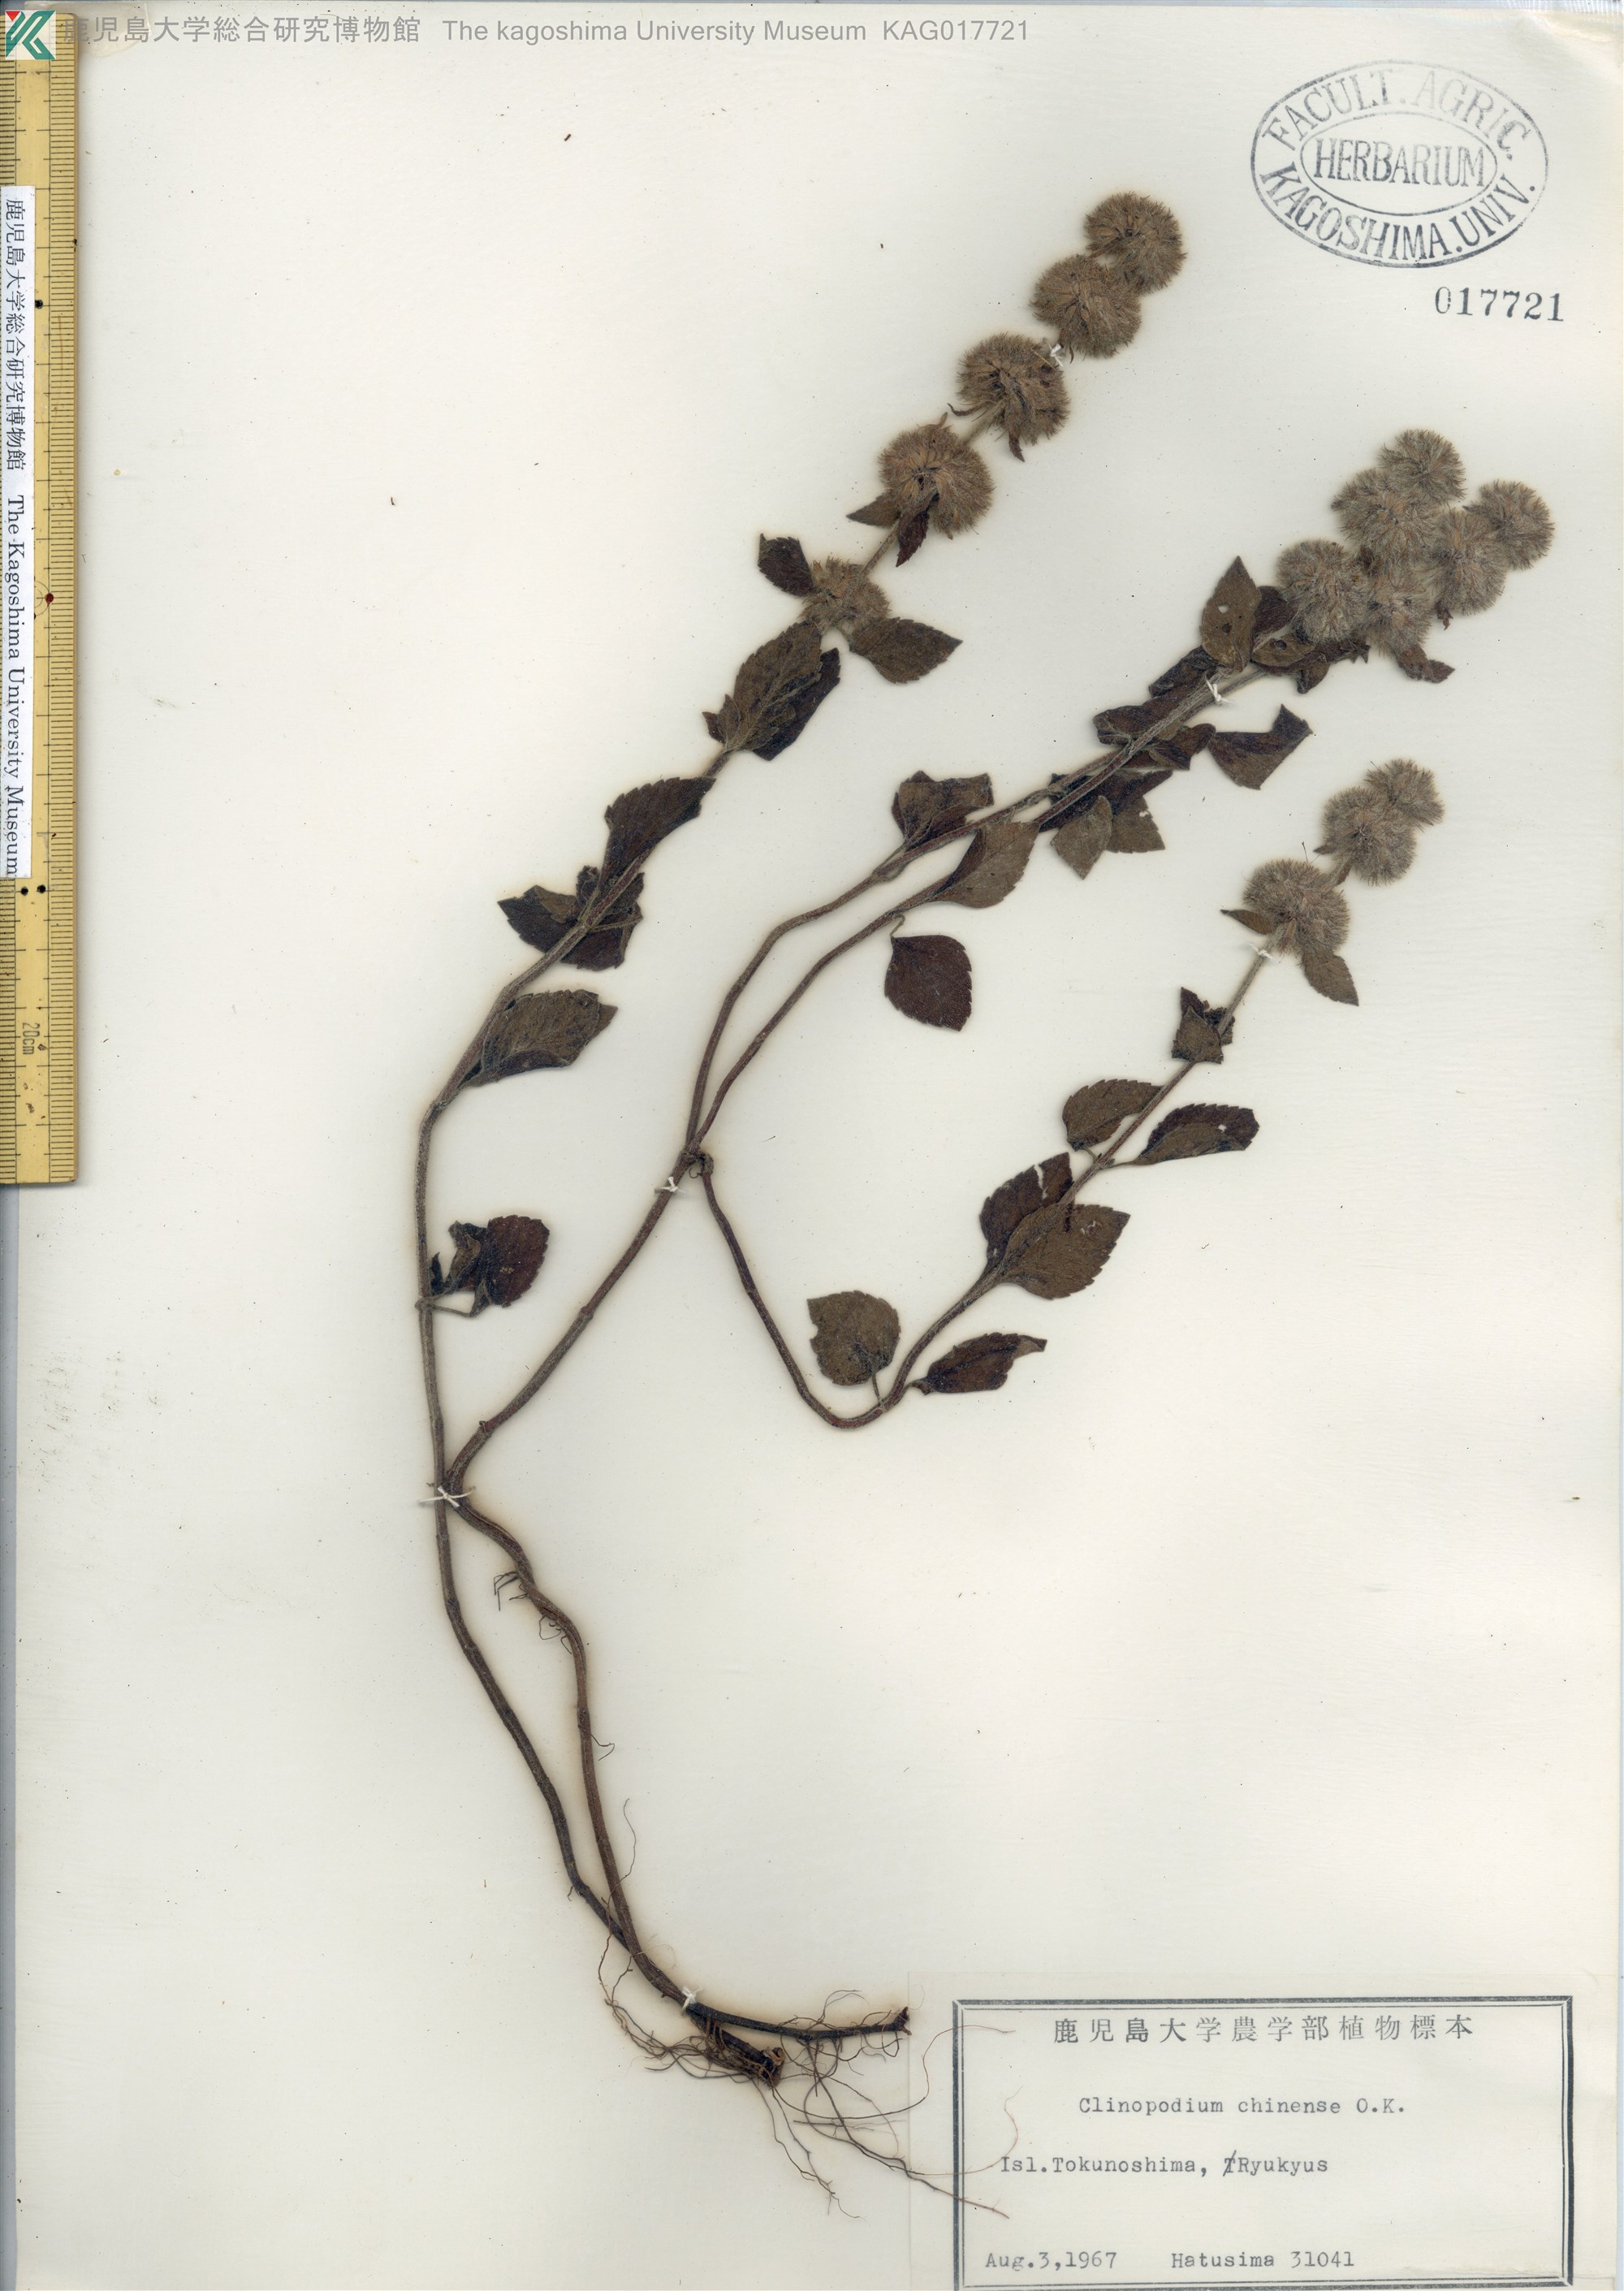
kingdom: Plantae
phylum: Tracheophyta
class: Magnoliopsida
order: Lamiales
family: Lamiaceae
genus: Clinopodium
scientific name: Clinopodium chinense
